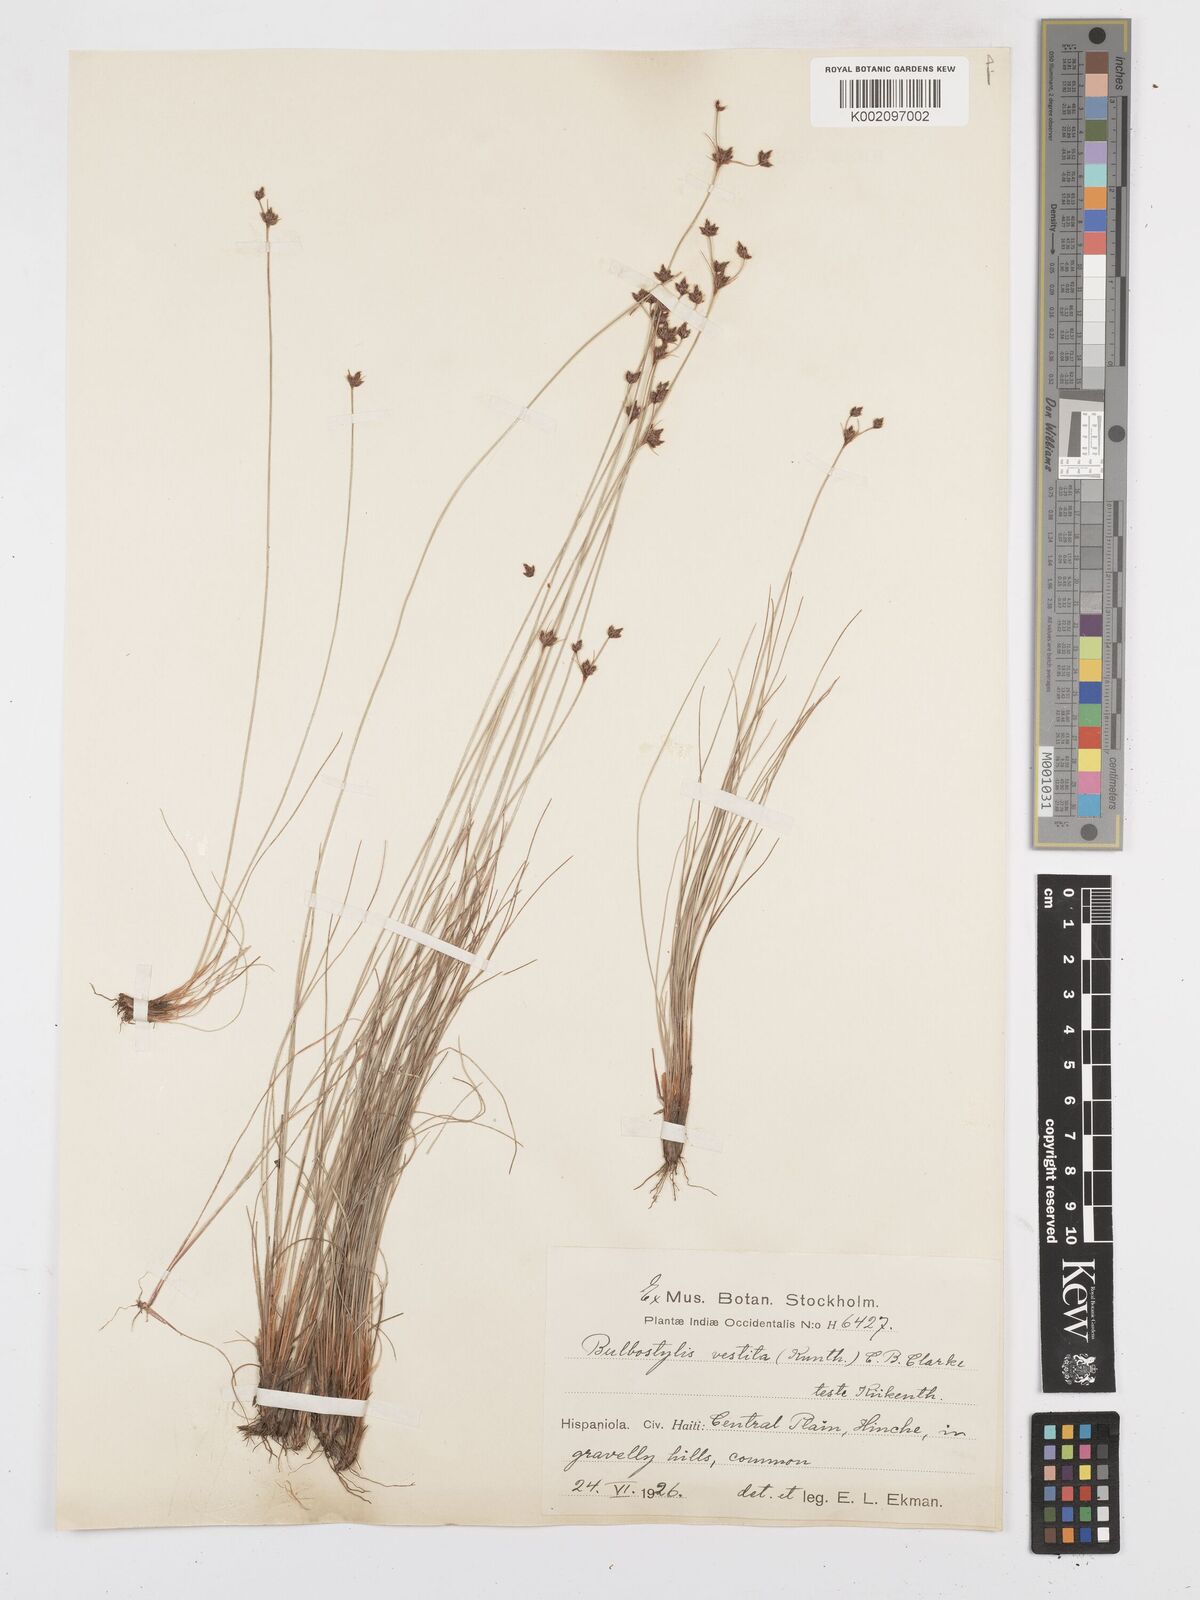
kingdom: Plantae
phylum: Tracheophyta
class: Liliopsida
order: Poales
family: Cyperaceae
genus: Bulbostylis
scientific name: Bulbostylis vestita
